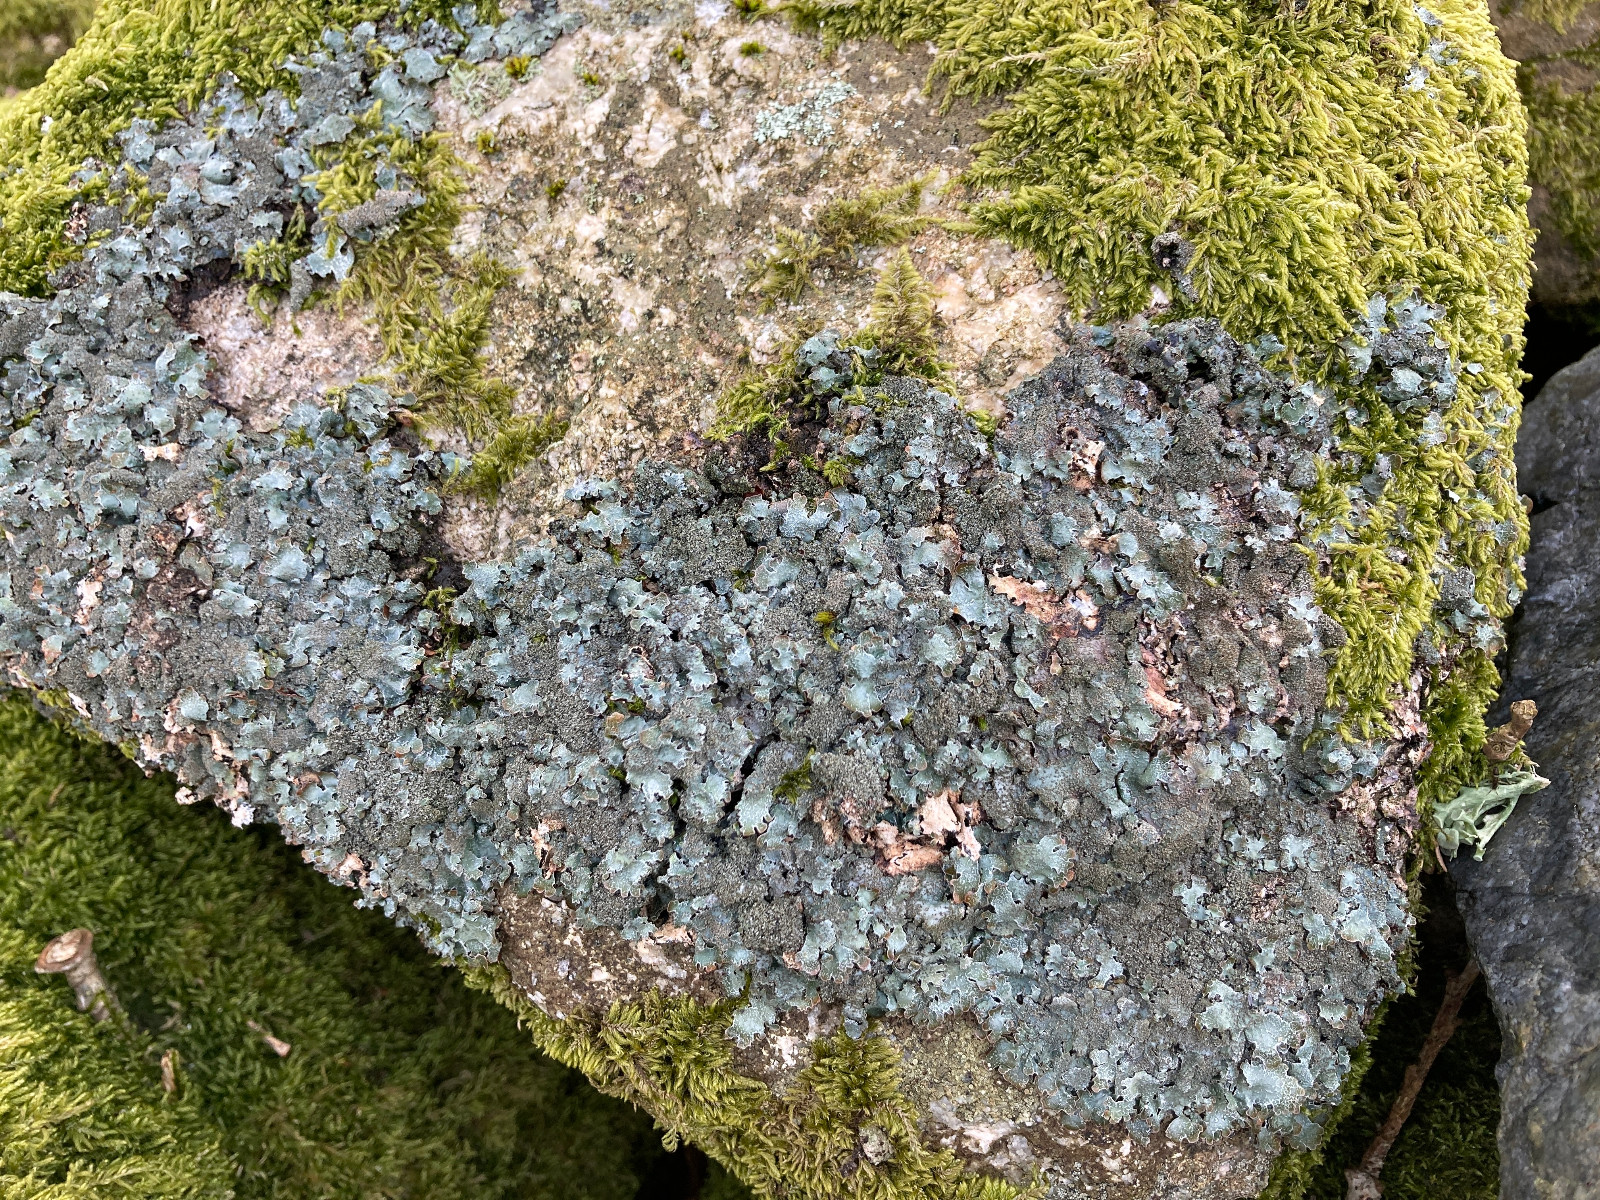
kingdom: Fungi
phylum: Ascomycota
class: Lecanoromycetes
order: Lecanorales
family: Parmeliaceae
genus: Parmelia
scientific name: Parmelia saxatilis
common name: farve-skållav
